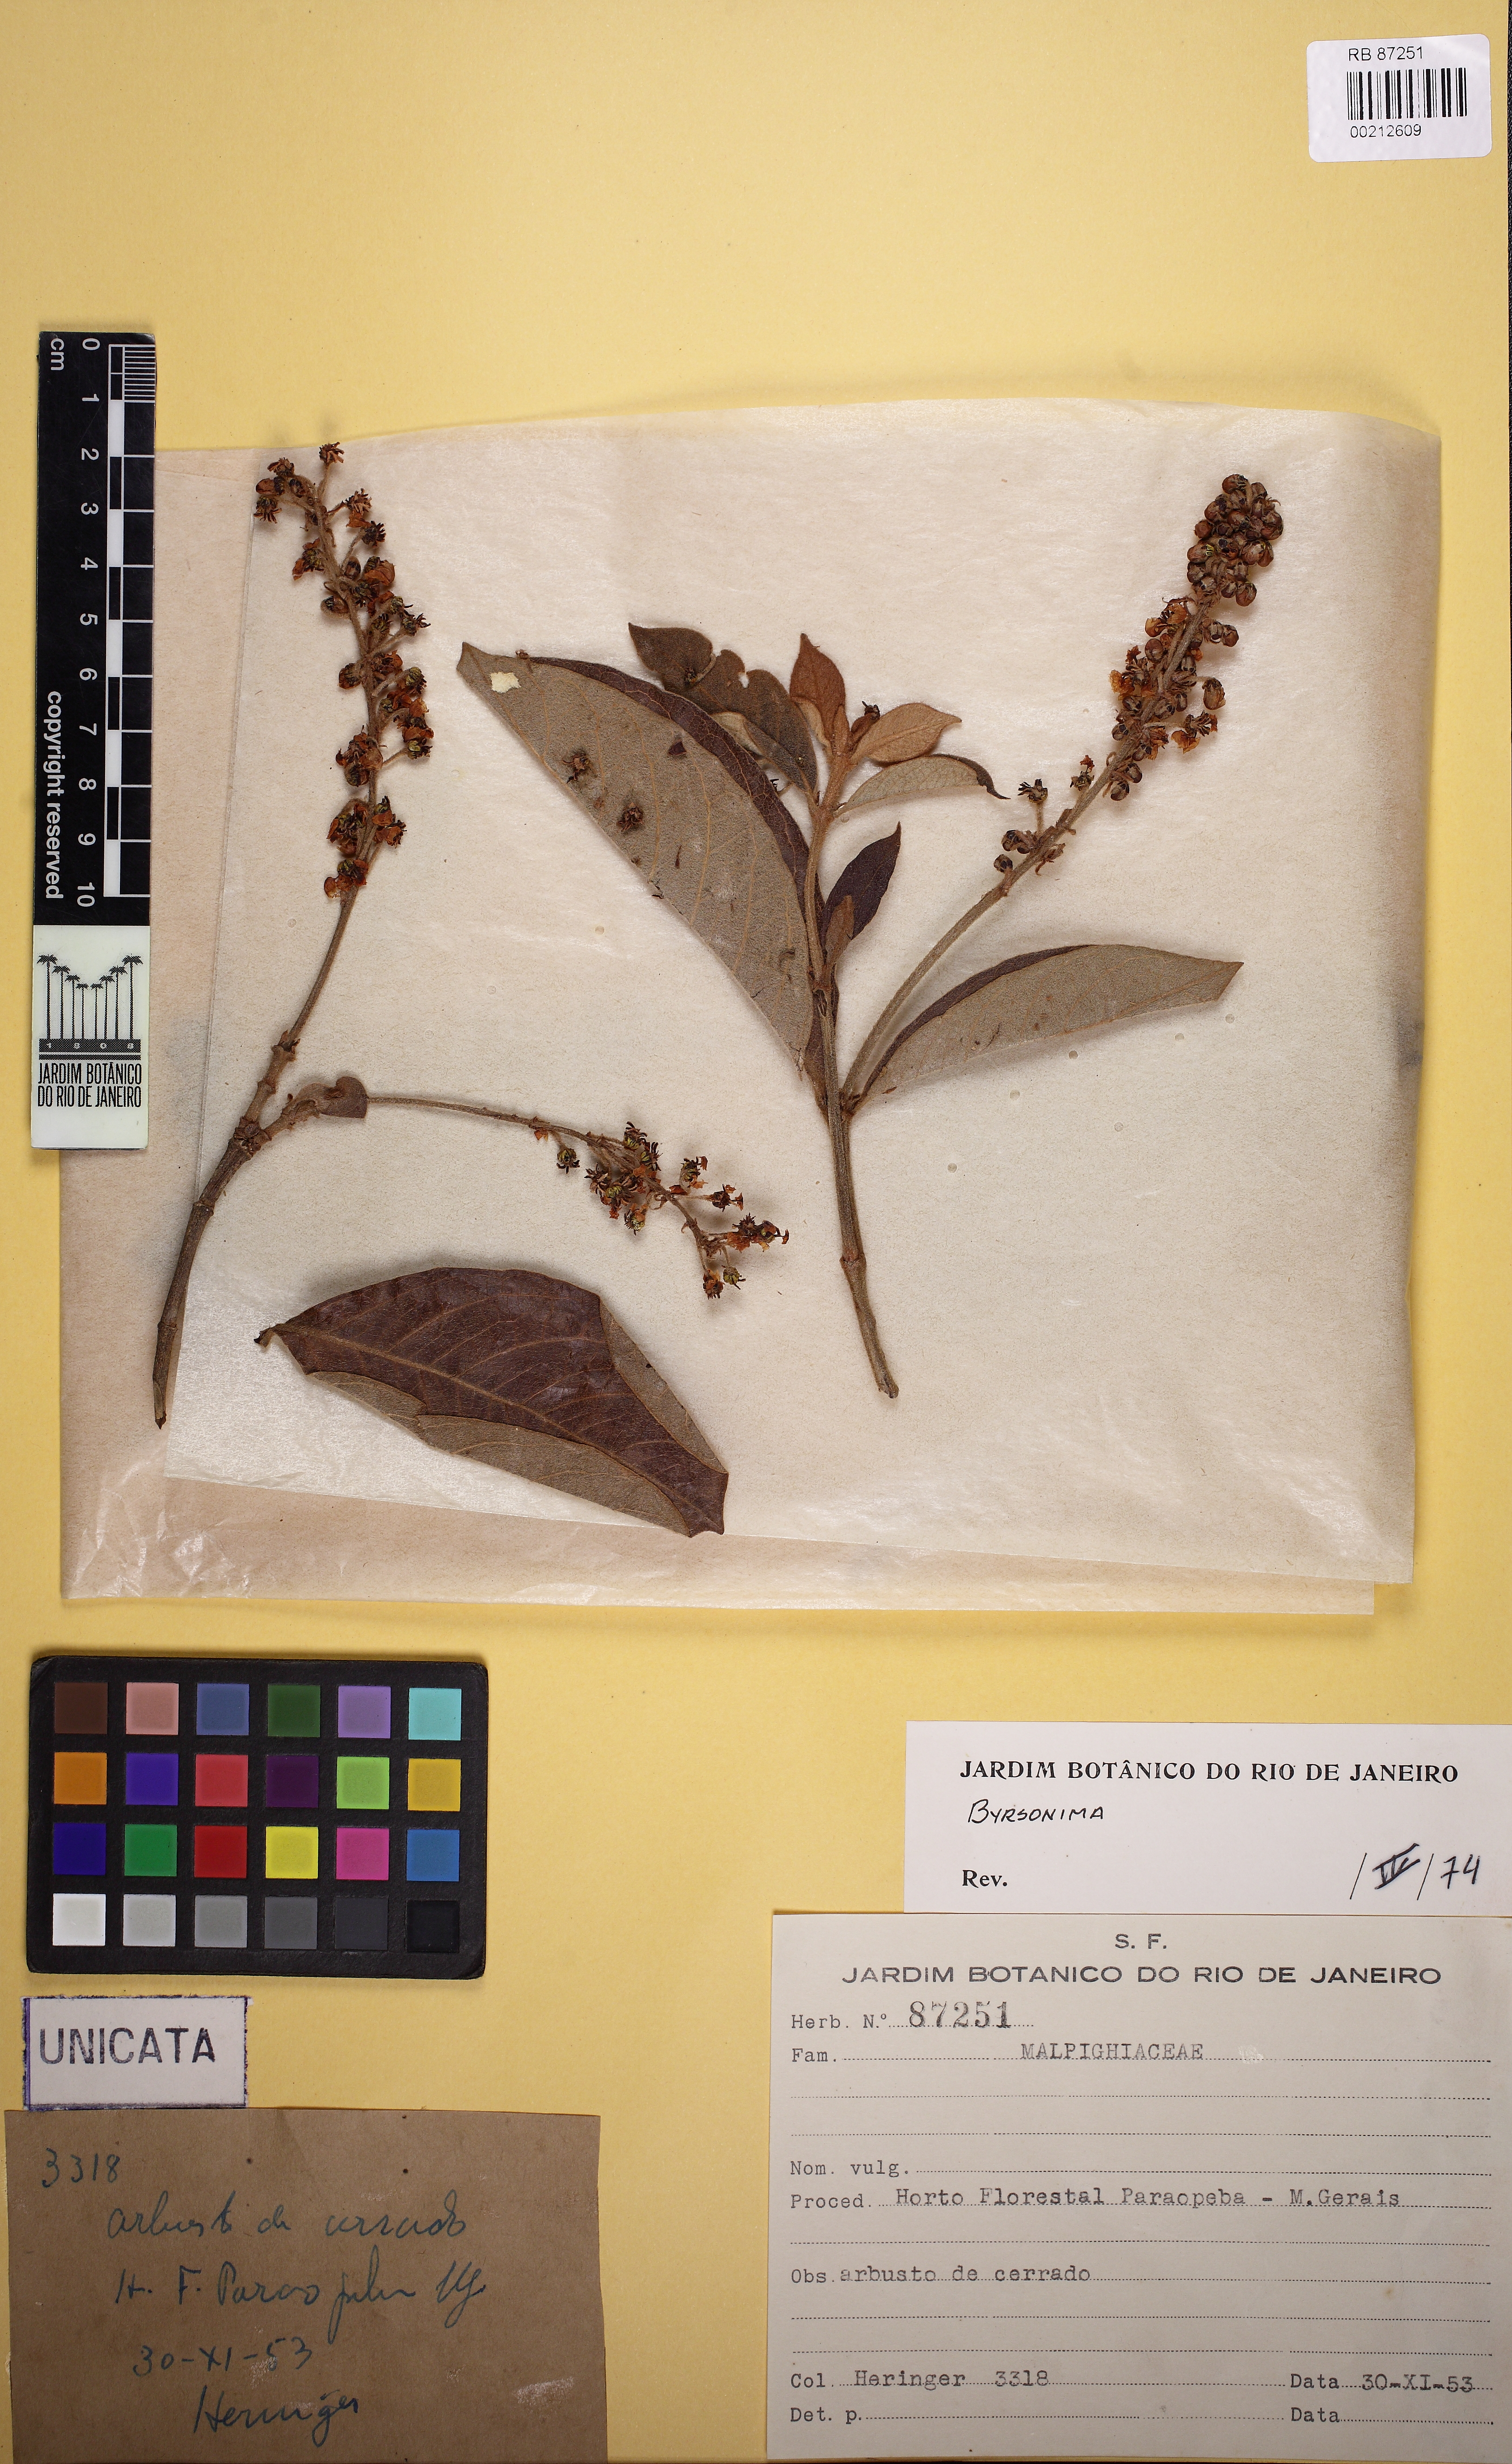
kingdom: Plantae
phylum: Tracheophyta
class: Magnoliopsida
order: Malpighiales
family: Malpighiaceae
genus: Byrsonima
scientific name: Byrsonima crassifolia
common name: Golden spoon
